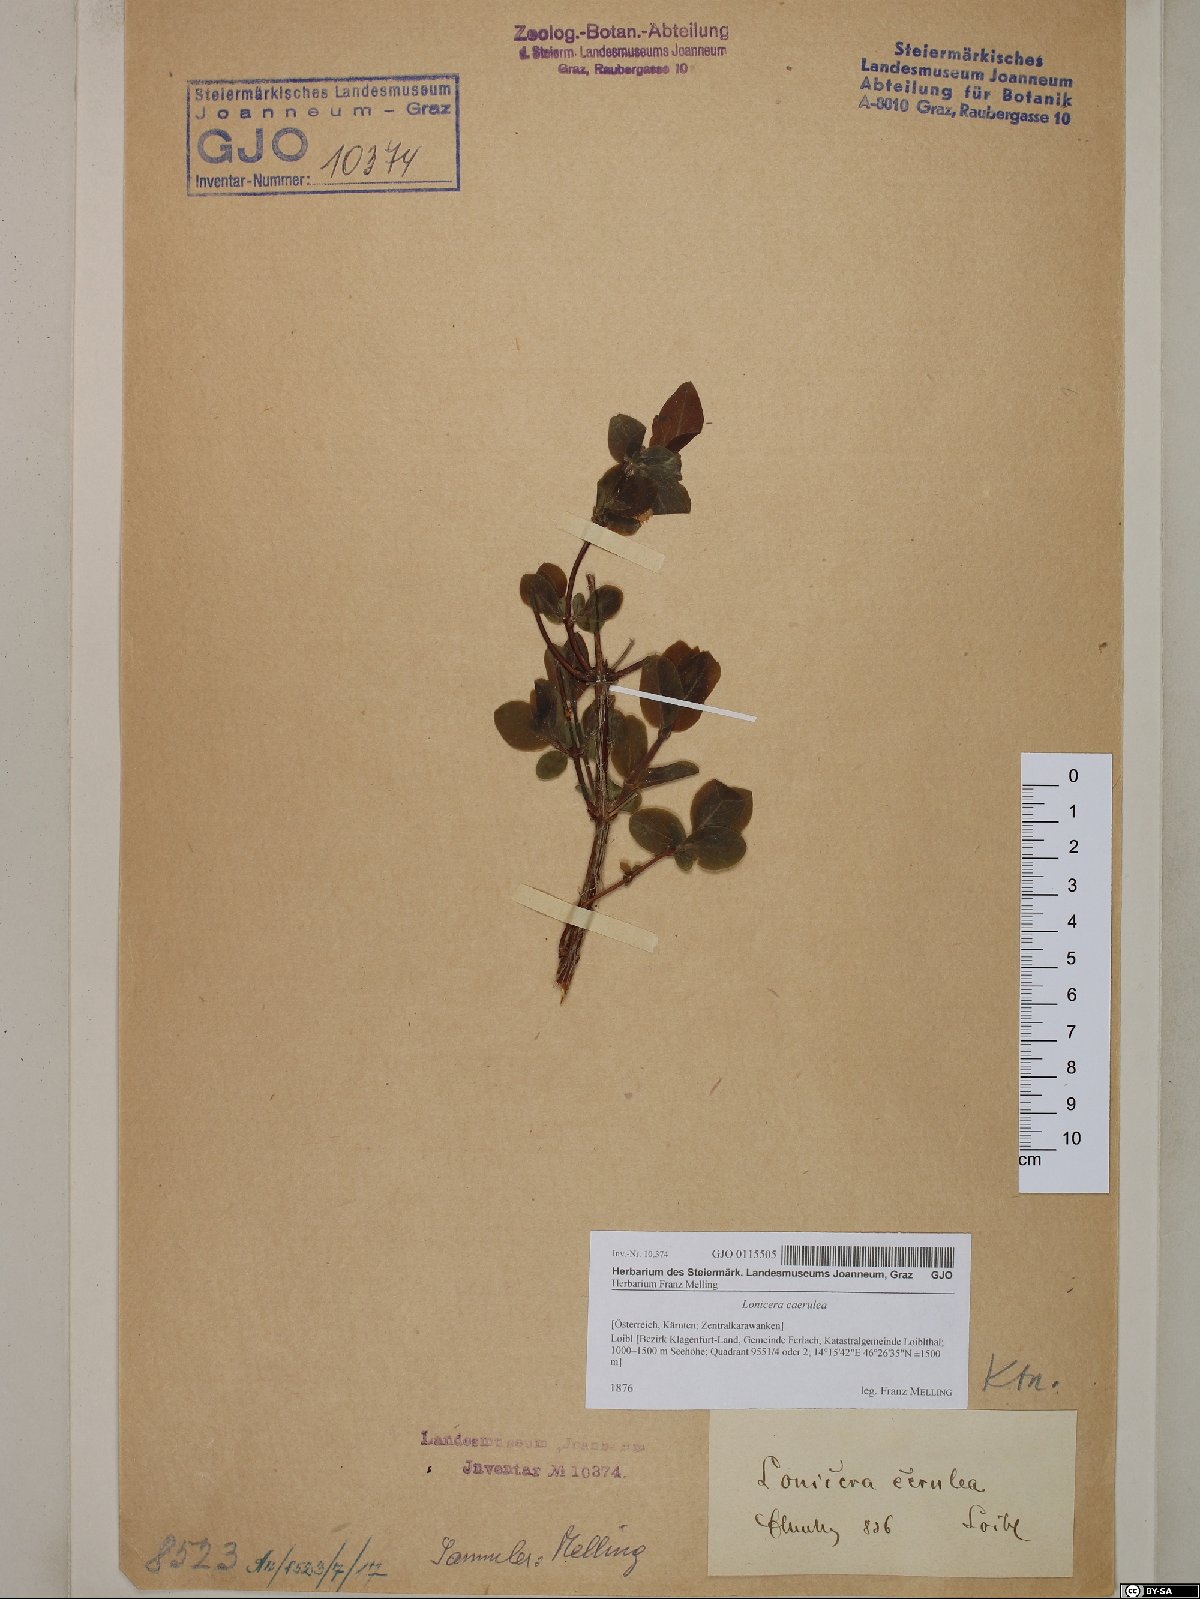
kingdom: Plantae
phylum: Tracheophyta
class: Magnoliopsida
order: Dipsacales
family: Caprifoliaceae
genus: Lonicera
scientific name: Lonicera caerulea
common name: Blue honeysuckle
